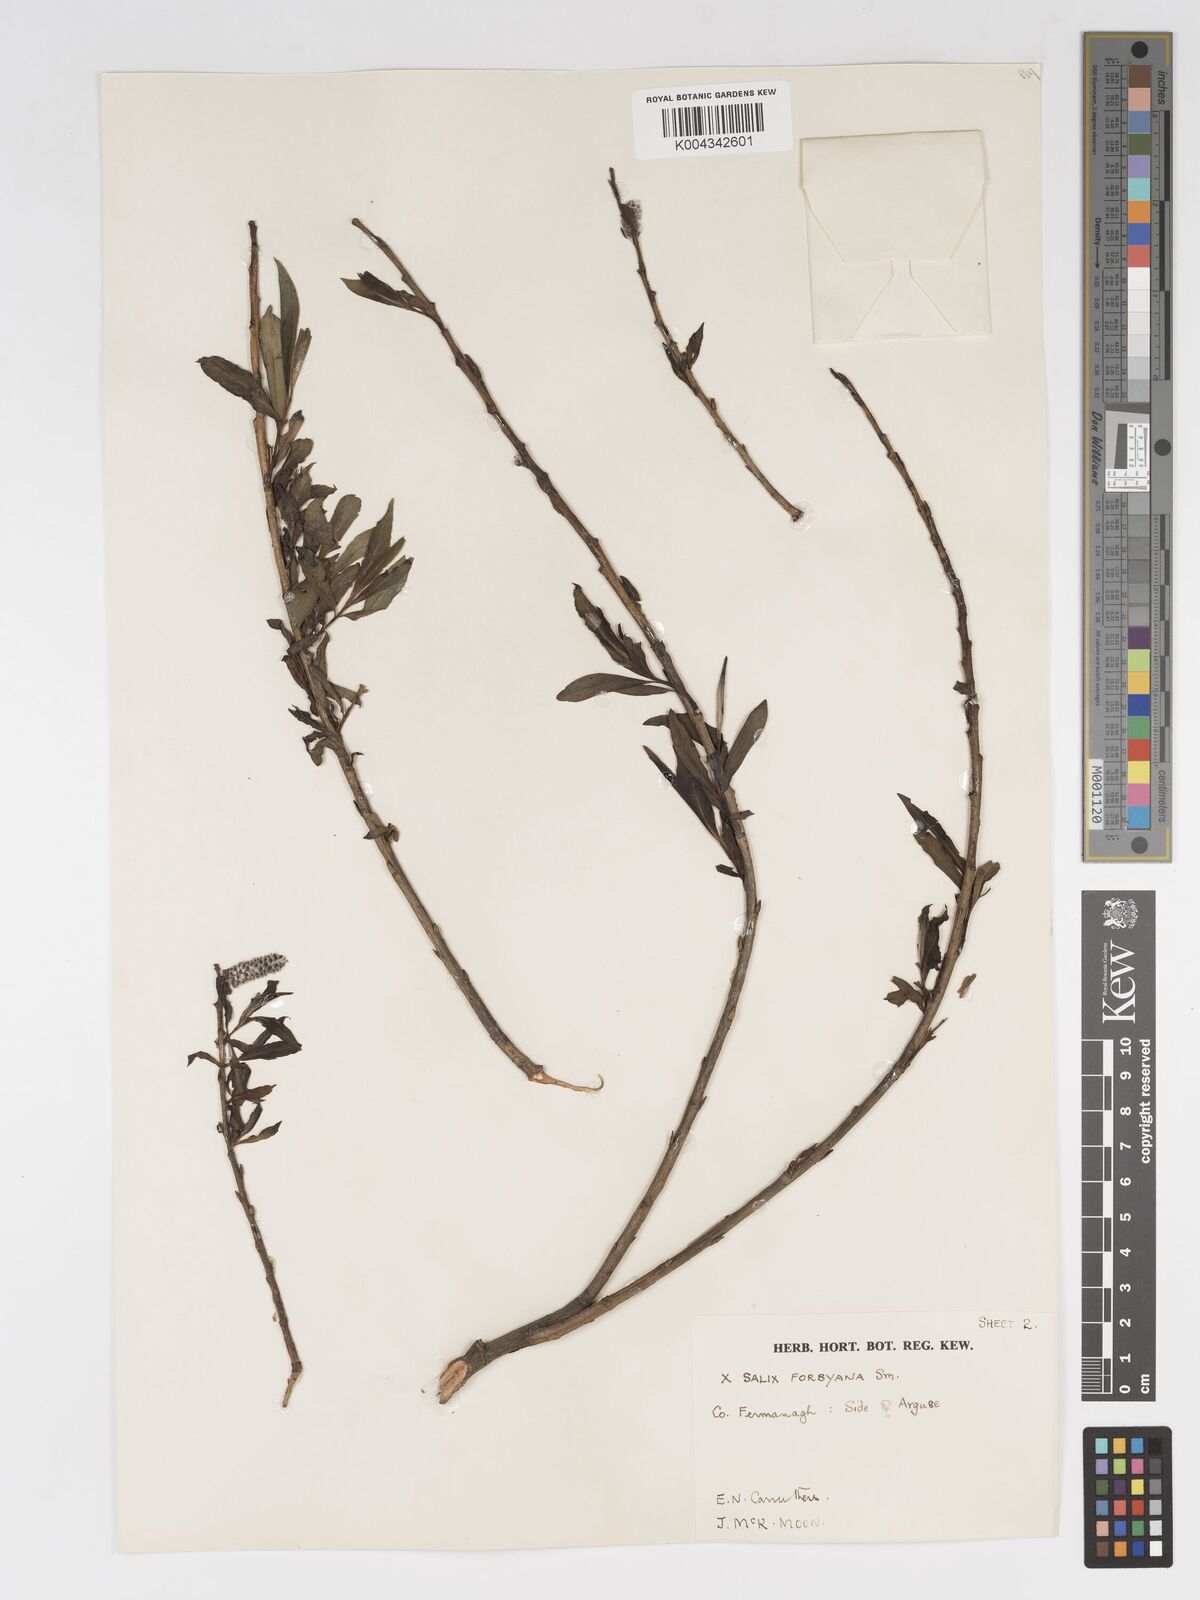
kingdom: Plantae
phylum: Tracheophyta
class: Magnoliopsida
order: Malpighiales
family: Salicaceae
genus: Salix
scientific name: Salix cinerea
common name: Common sallow
